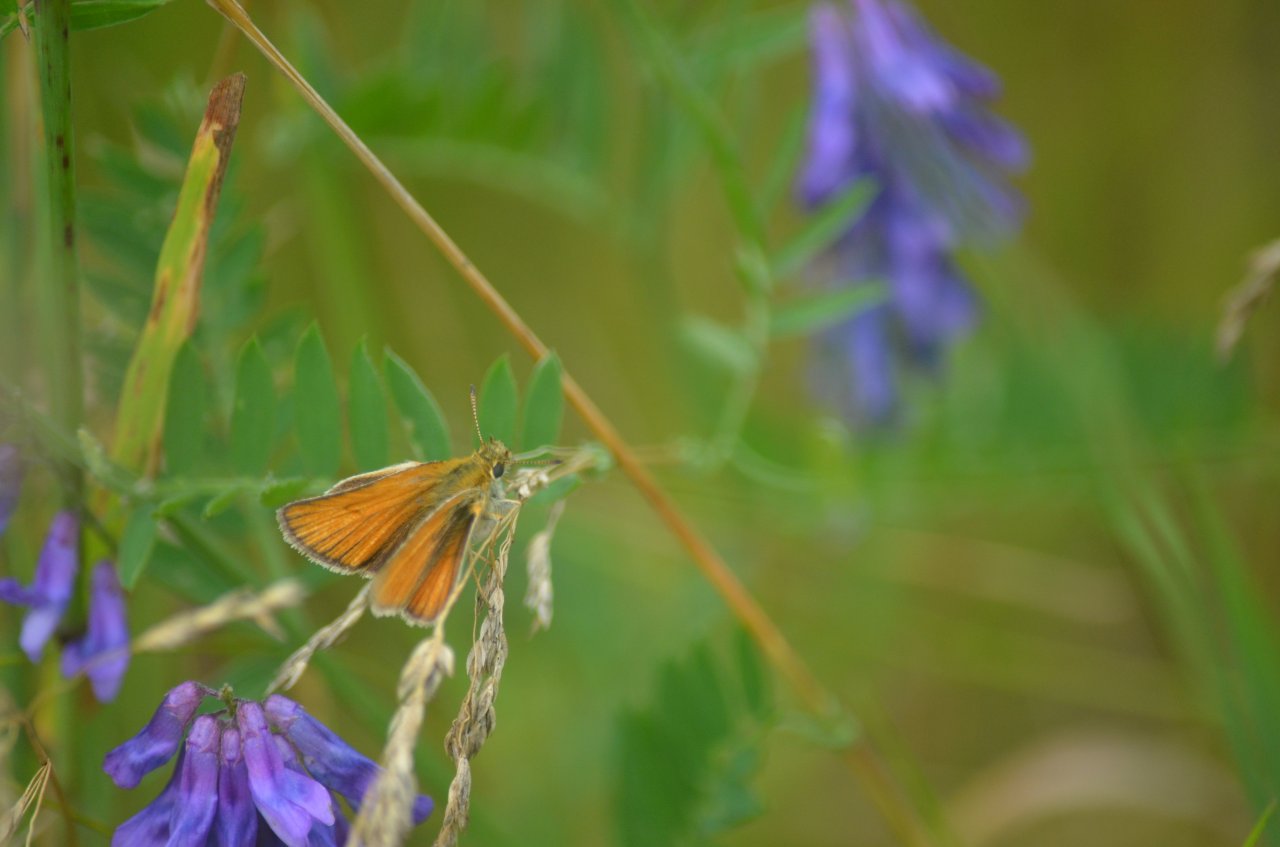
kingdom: Animalia
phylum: Arthropoda
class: Insecta
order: Lepidoptera
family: Hesperiidae
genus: Thymelicus
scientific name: Thymelicus lineola
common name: European Skipper
